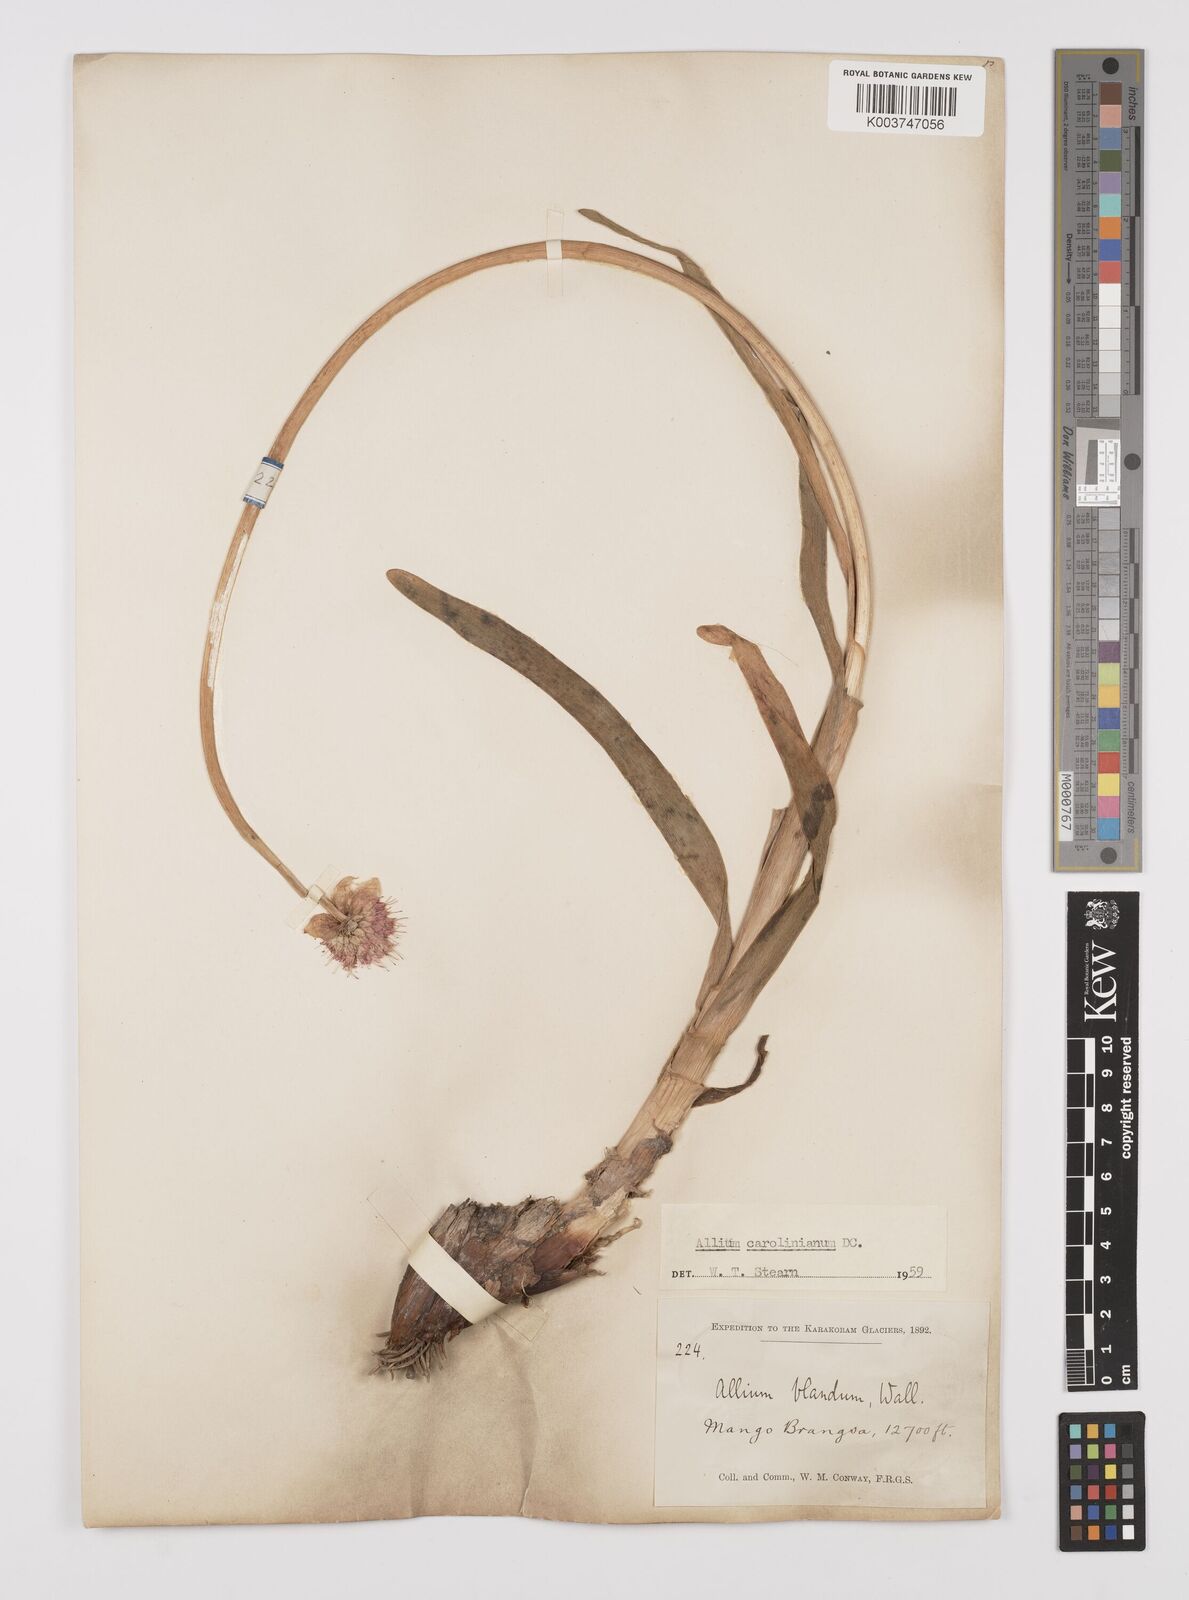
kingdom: Plantae
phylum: Tracheophyta
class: Liliopsida
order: Asparagales
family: Amaryllidaceae
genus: Allium
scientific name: Allium blandum
